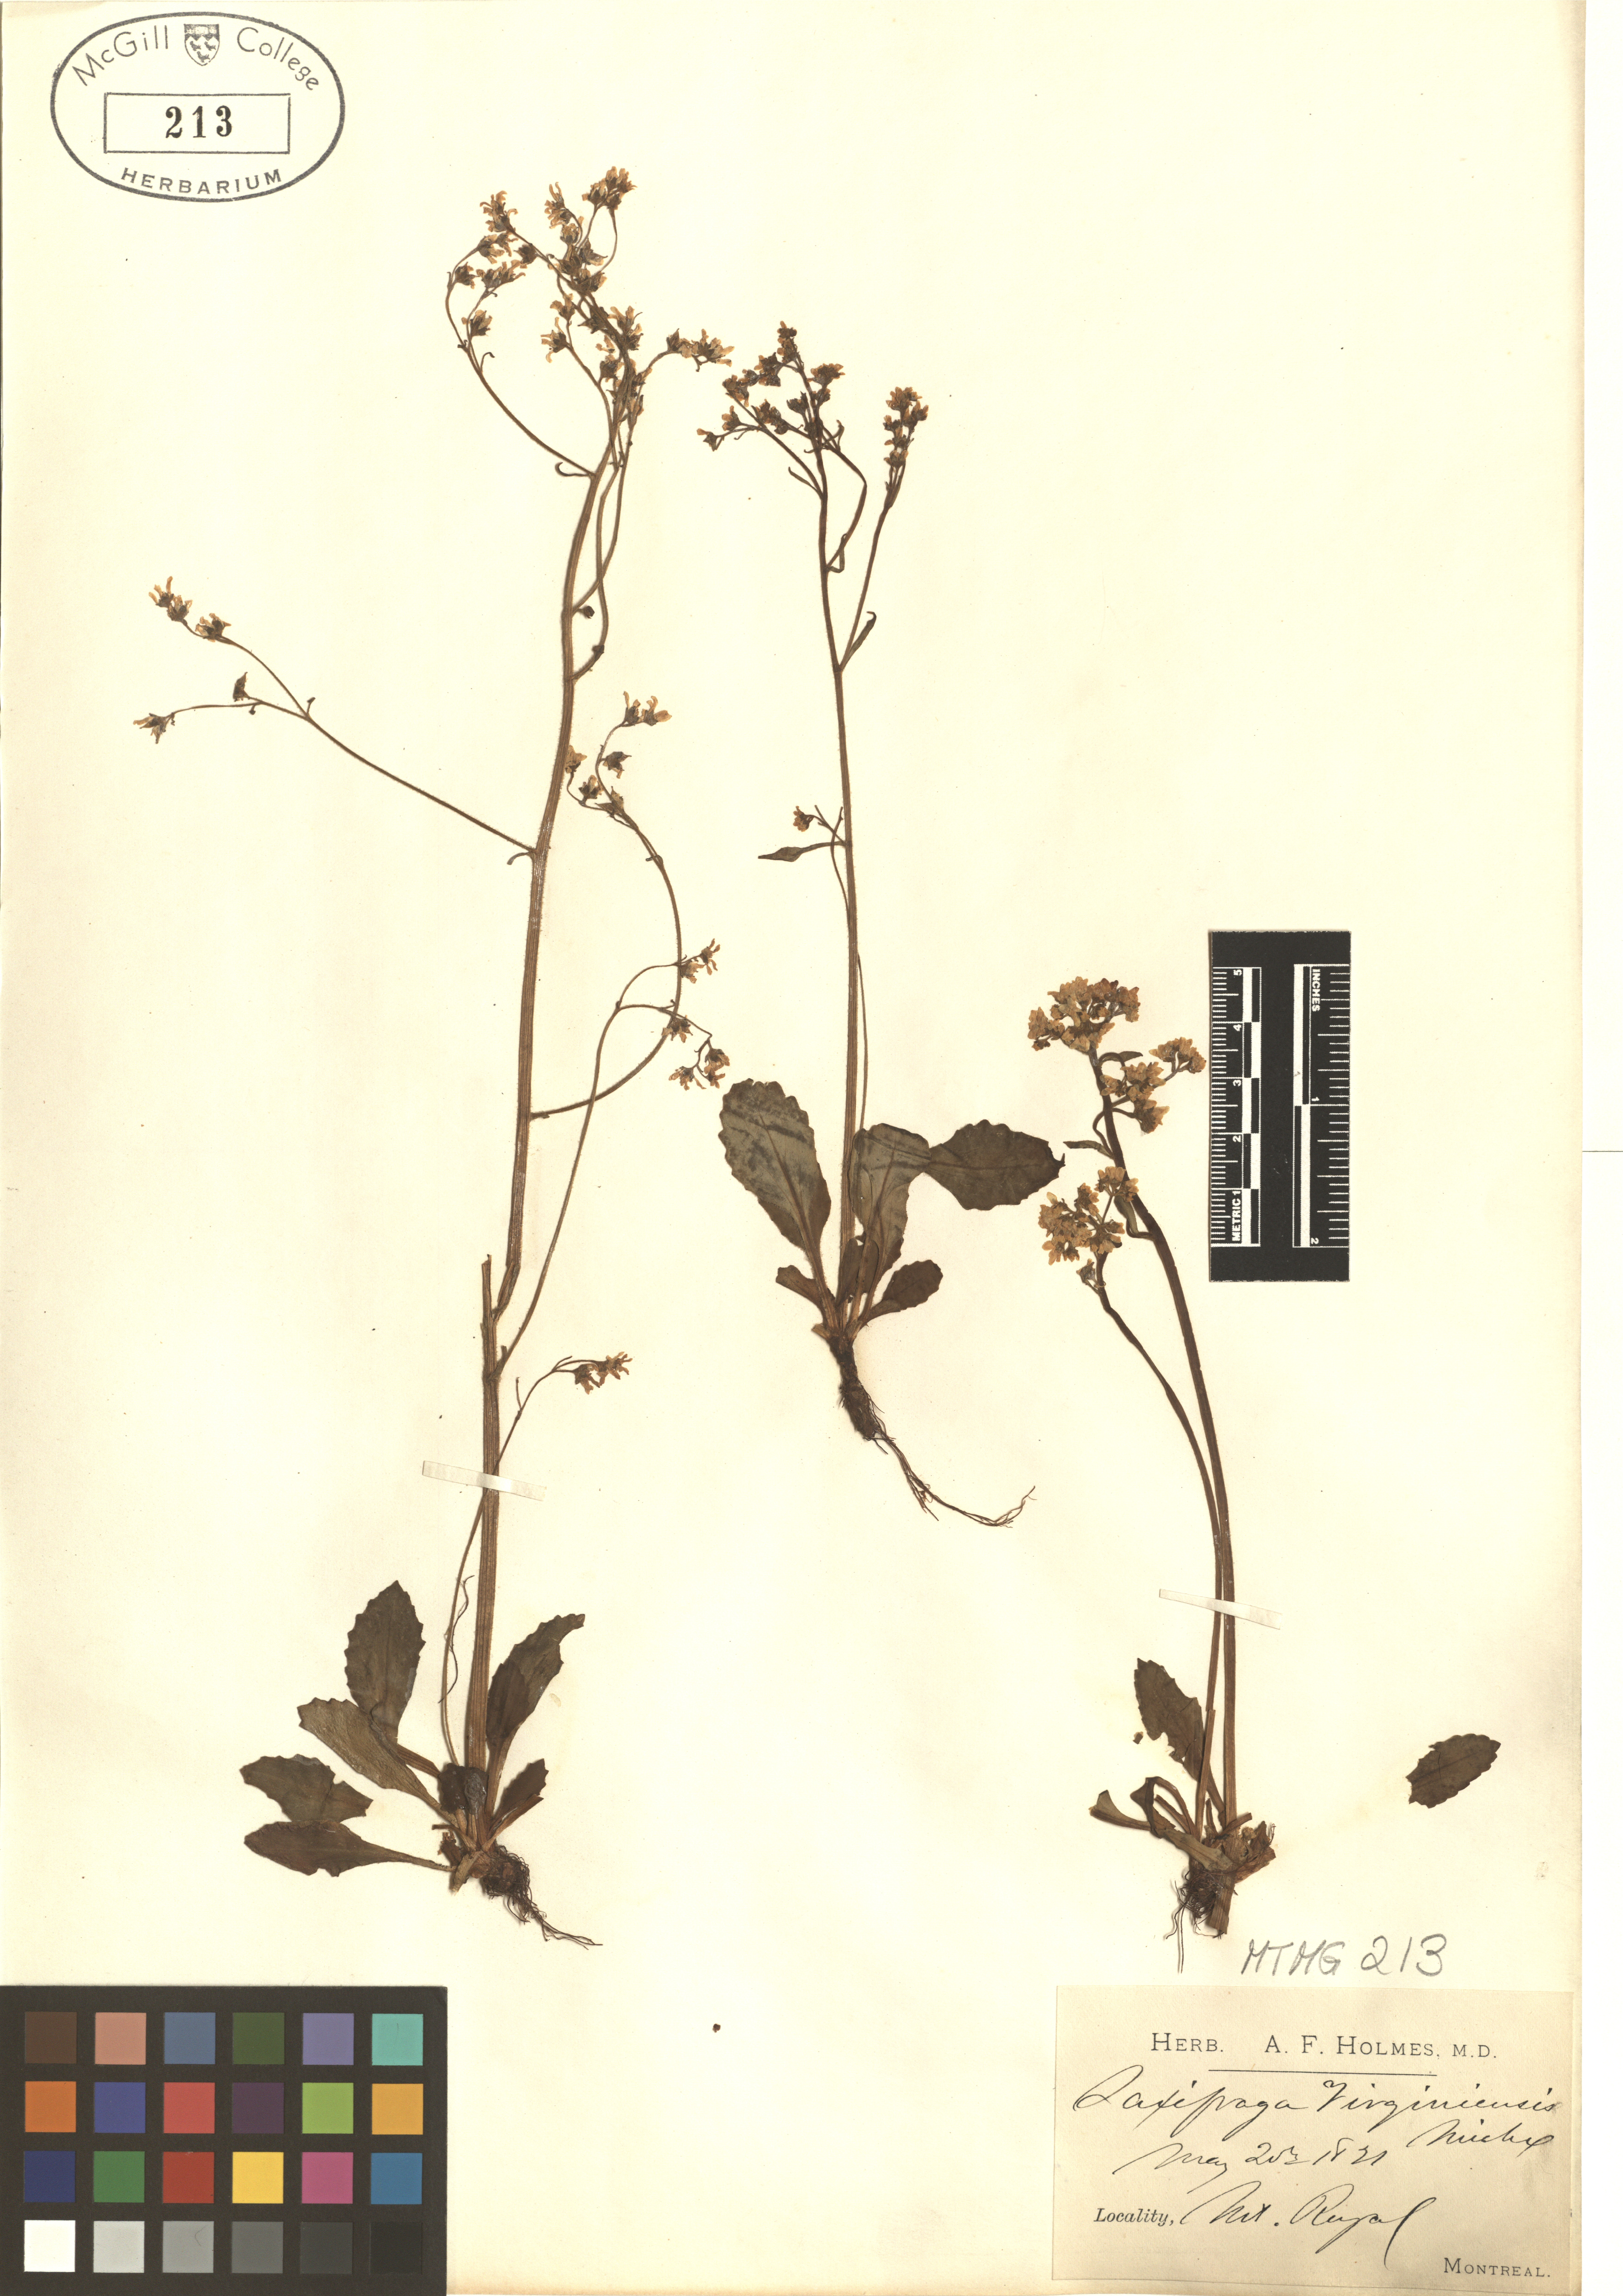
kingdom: Plantae
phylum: Tracheophyta
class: Magnoliopsida
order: Saxifragales
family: Saxifragaceae
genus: Micranthes
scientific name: Micranthes virginiensis
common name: Early saxifrage
